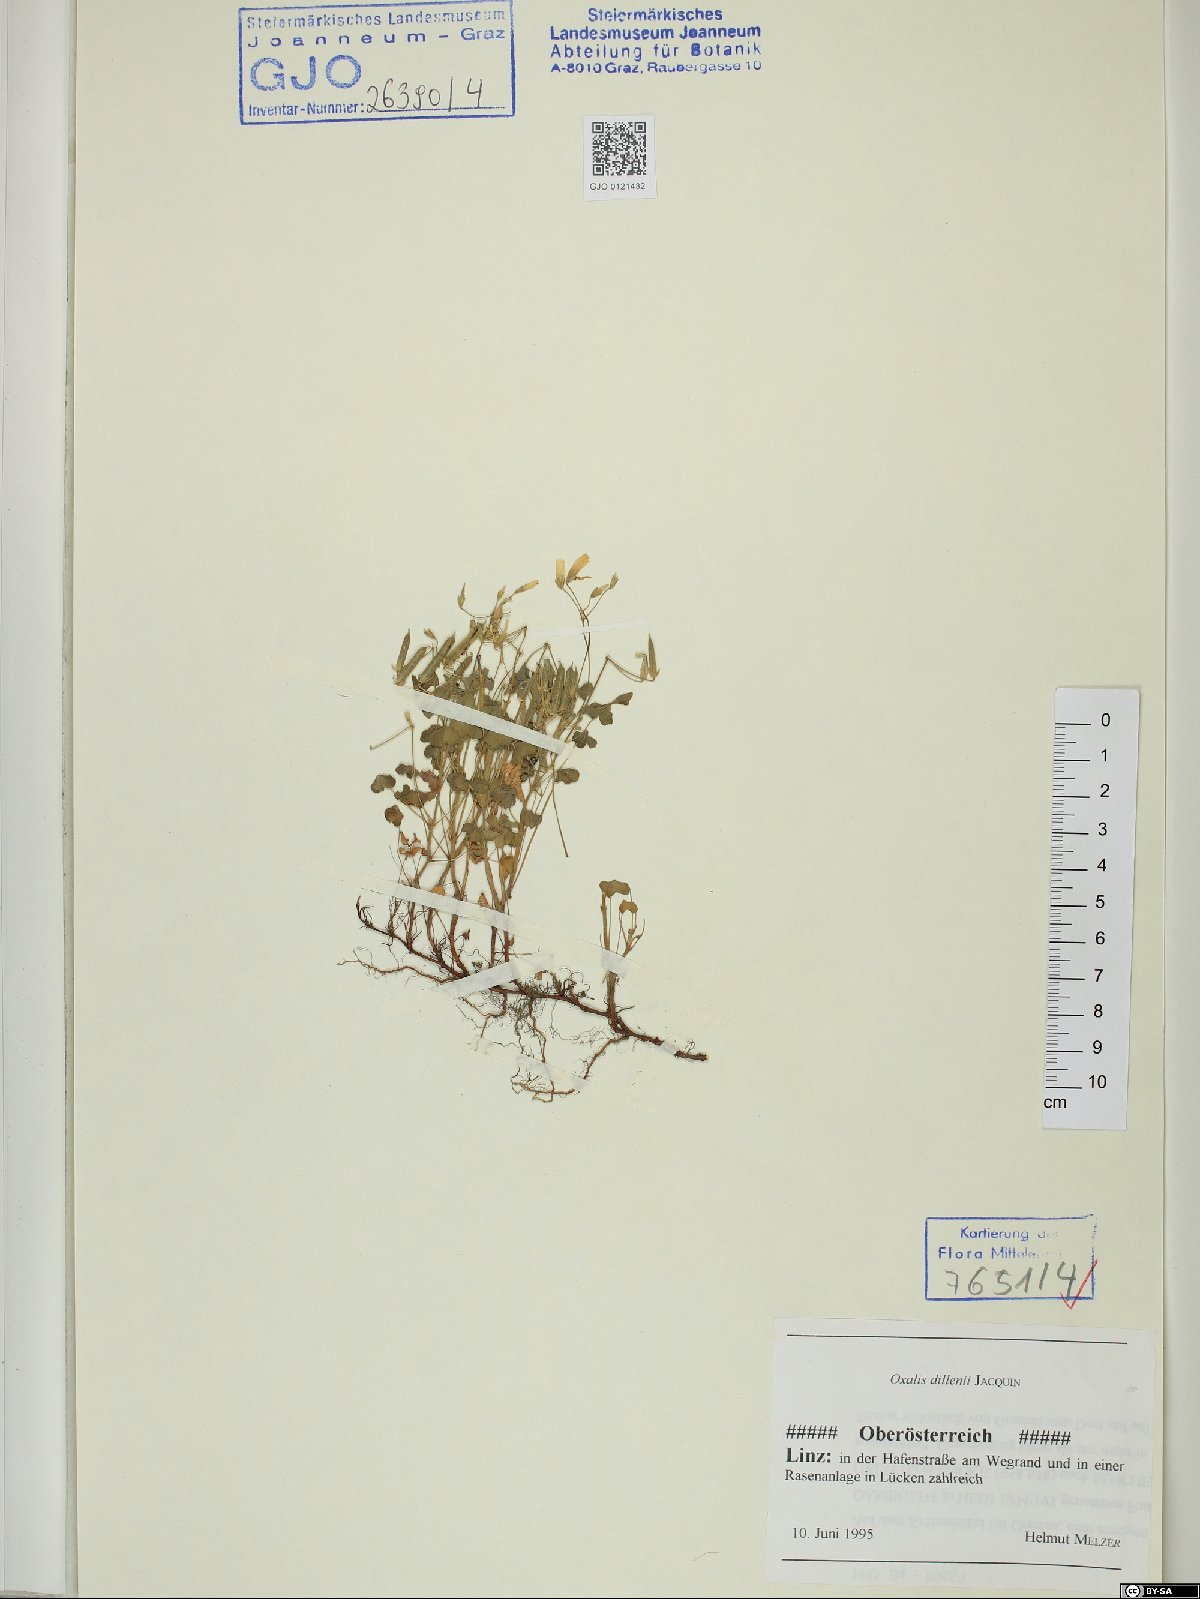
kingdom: Plantae
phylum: Tracheophyta
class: Magnoliopsida
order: Oxalidales
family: Oxalidaceae
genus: Oxalis
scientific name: Oxalis dillenii
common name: Sussex yellow-sorrel
